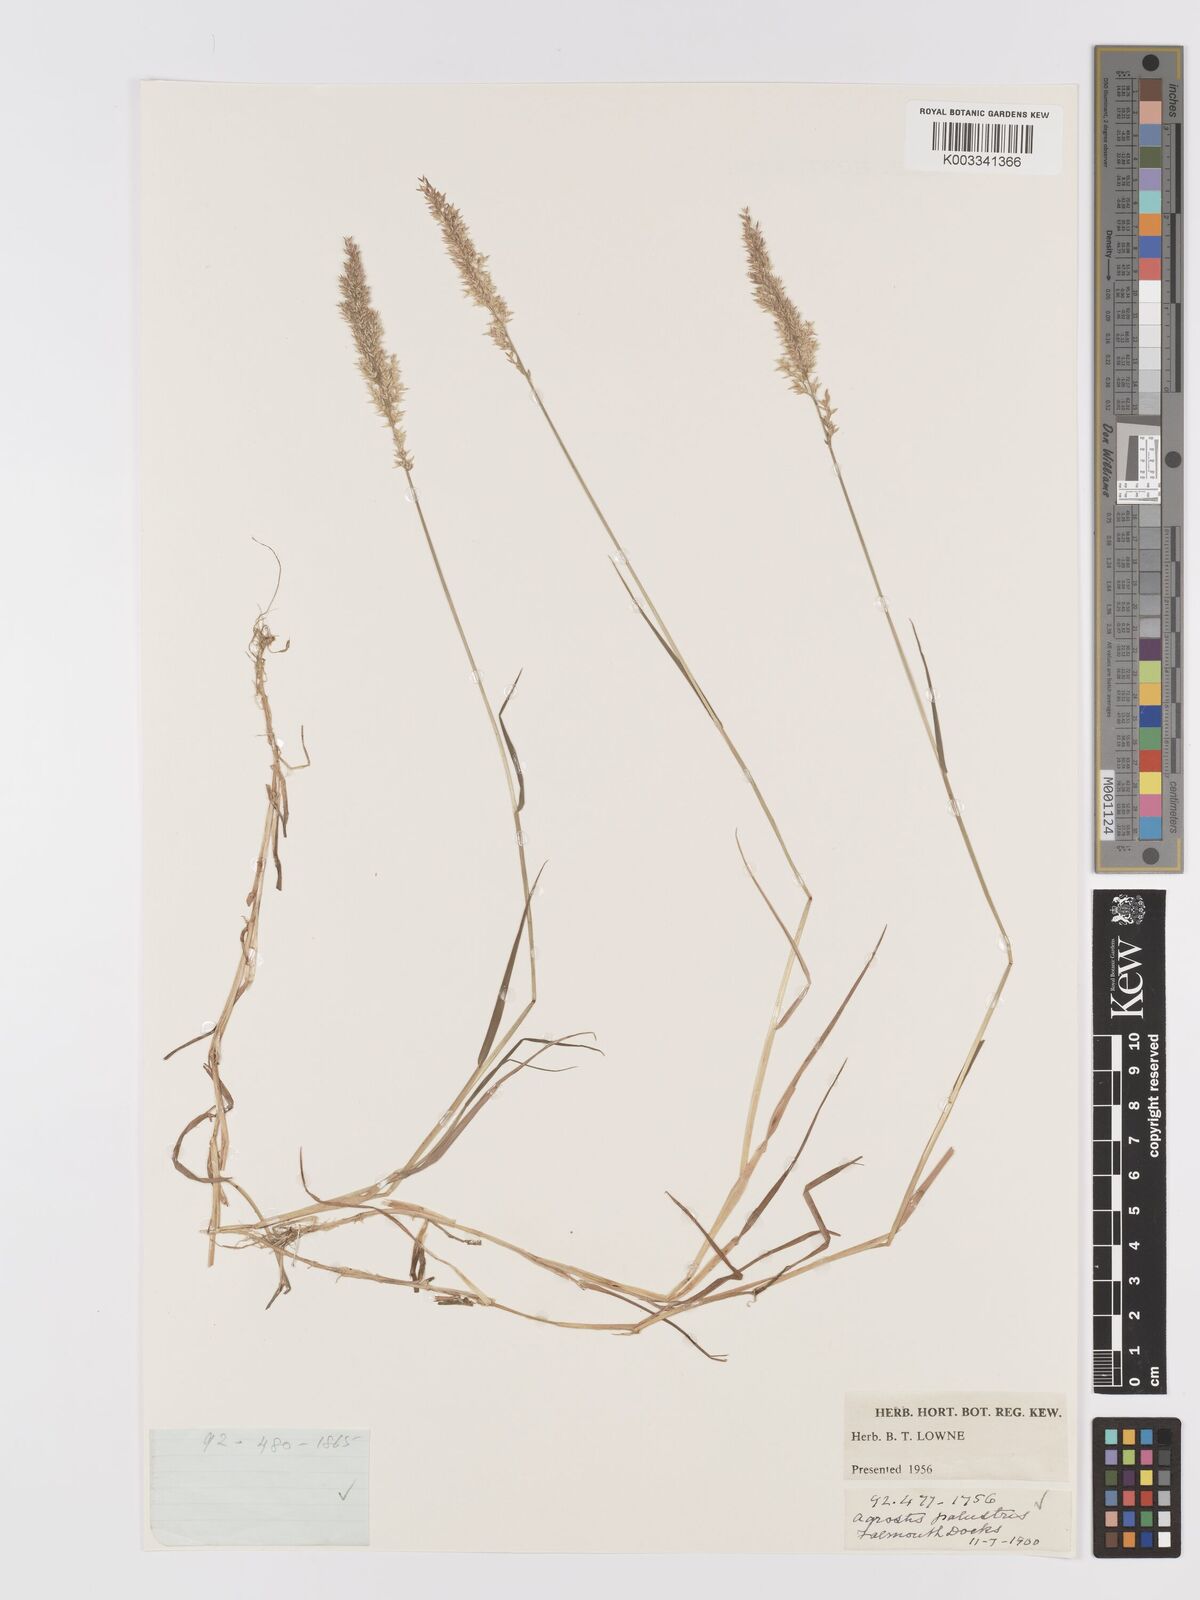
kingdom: Plantae
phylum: Tracheophyta
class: Liliopsida
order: Poales
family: Poaceae
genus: Agrostis
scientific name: Agrostis stolonifera
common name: Creeping bentgrass
